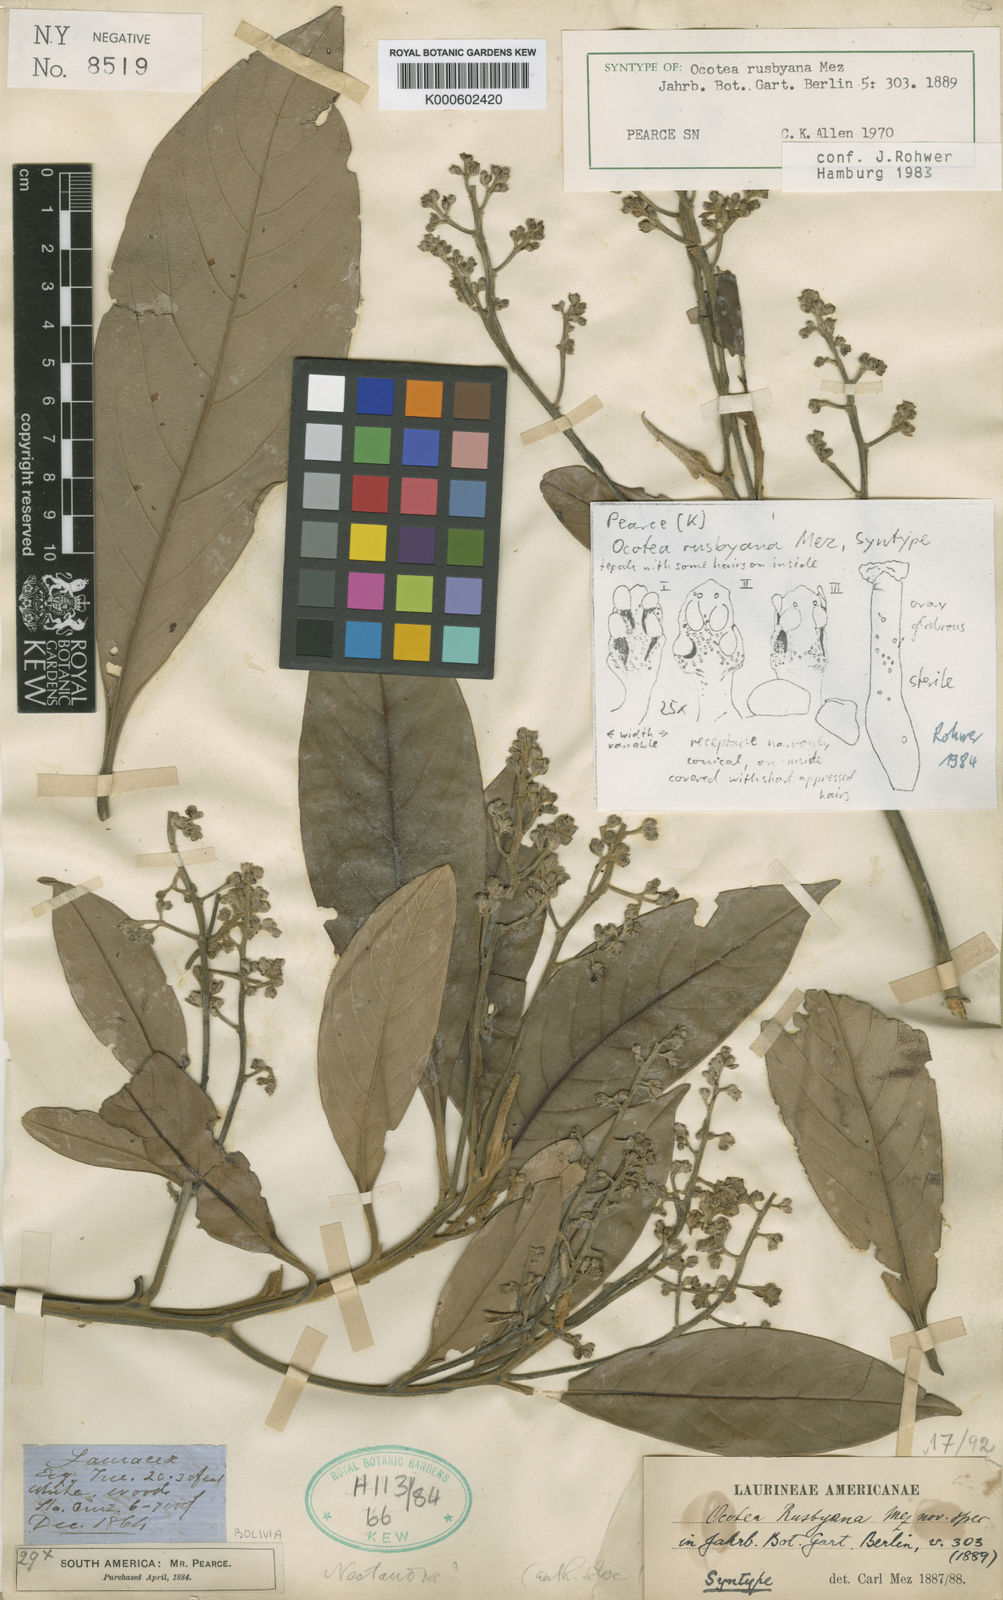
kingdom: Plantae
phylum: Tracheophyta
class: Magnoliopsida
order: Laurales
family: Lauraceae
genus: Mespilodaphne
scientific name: Mespilodaphne opifera
